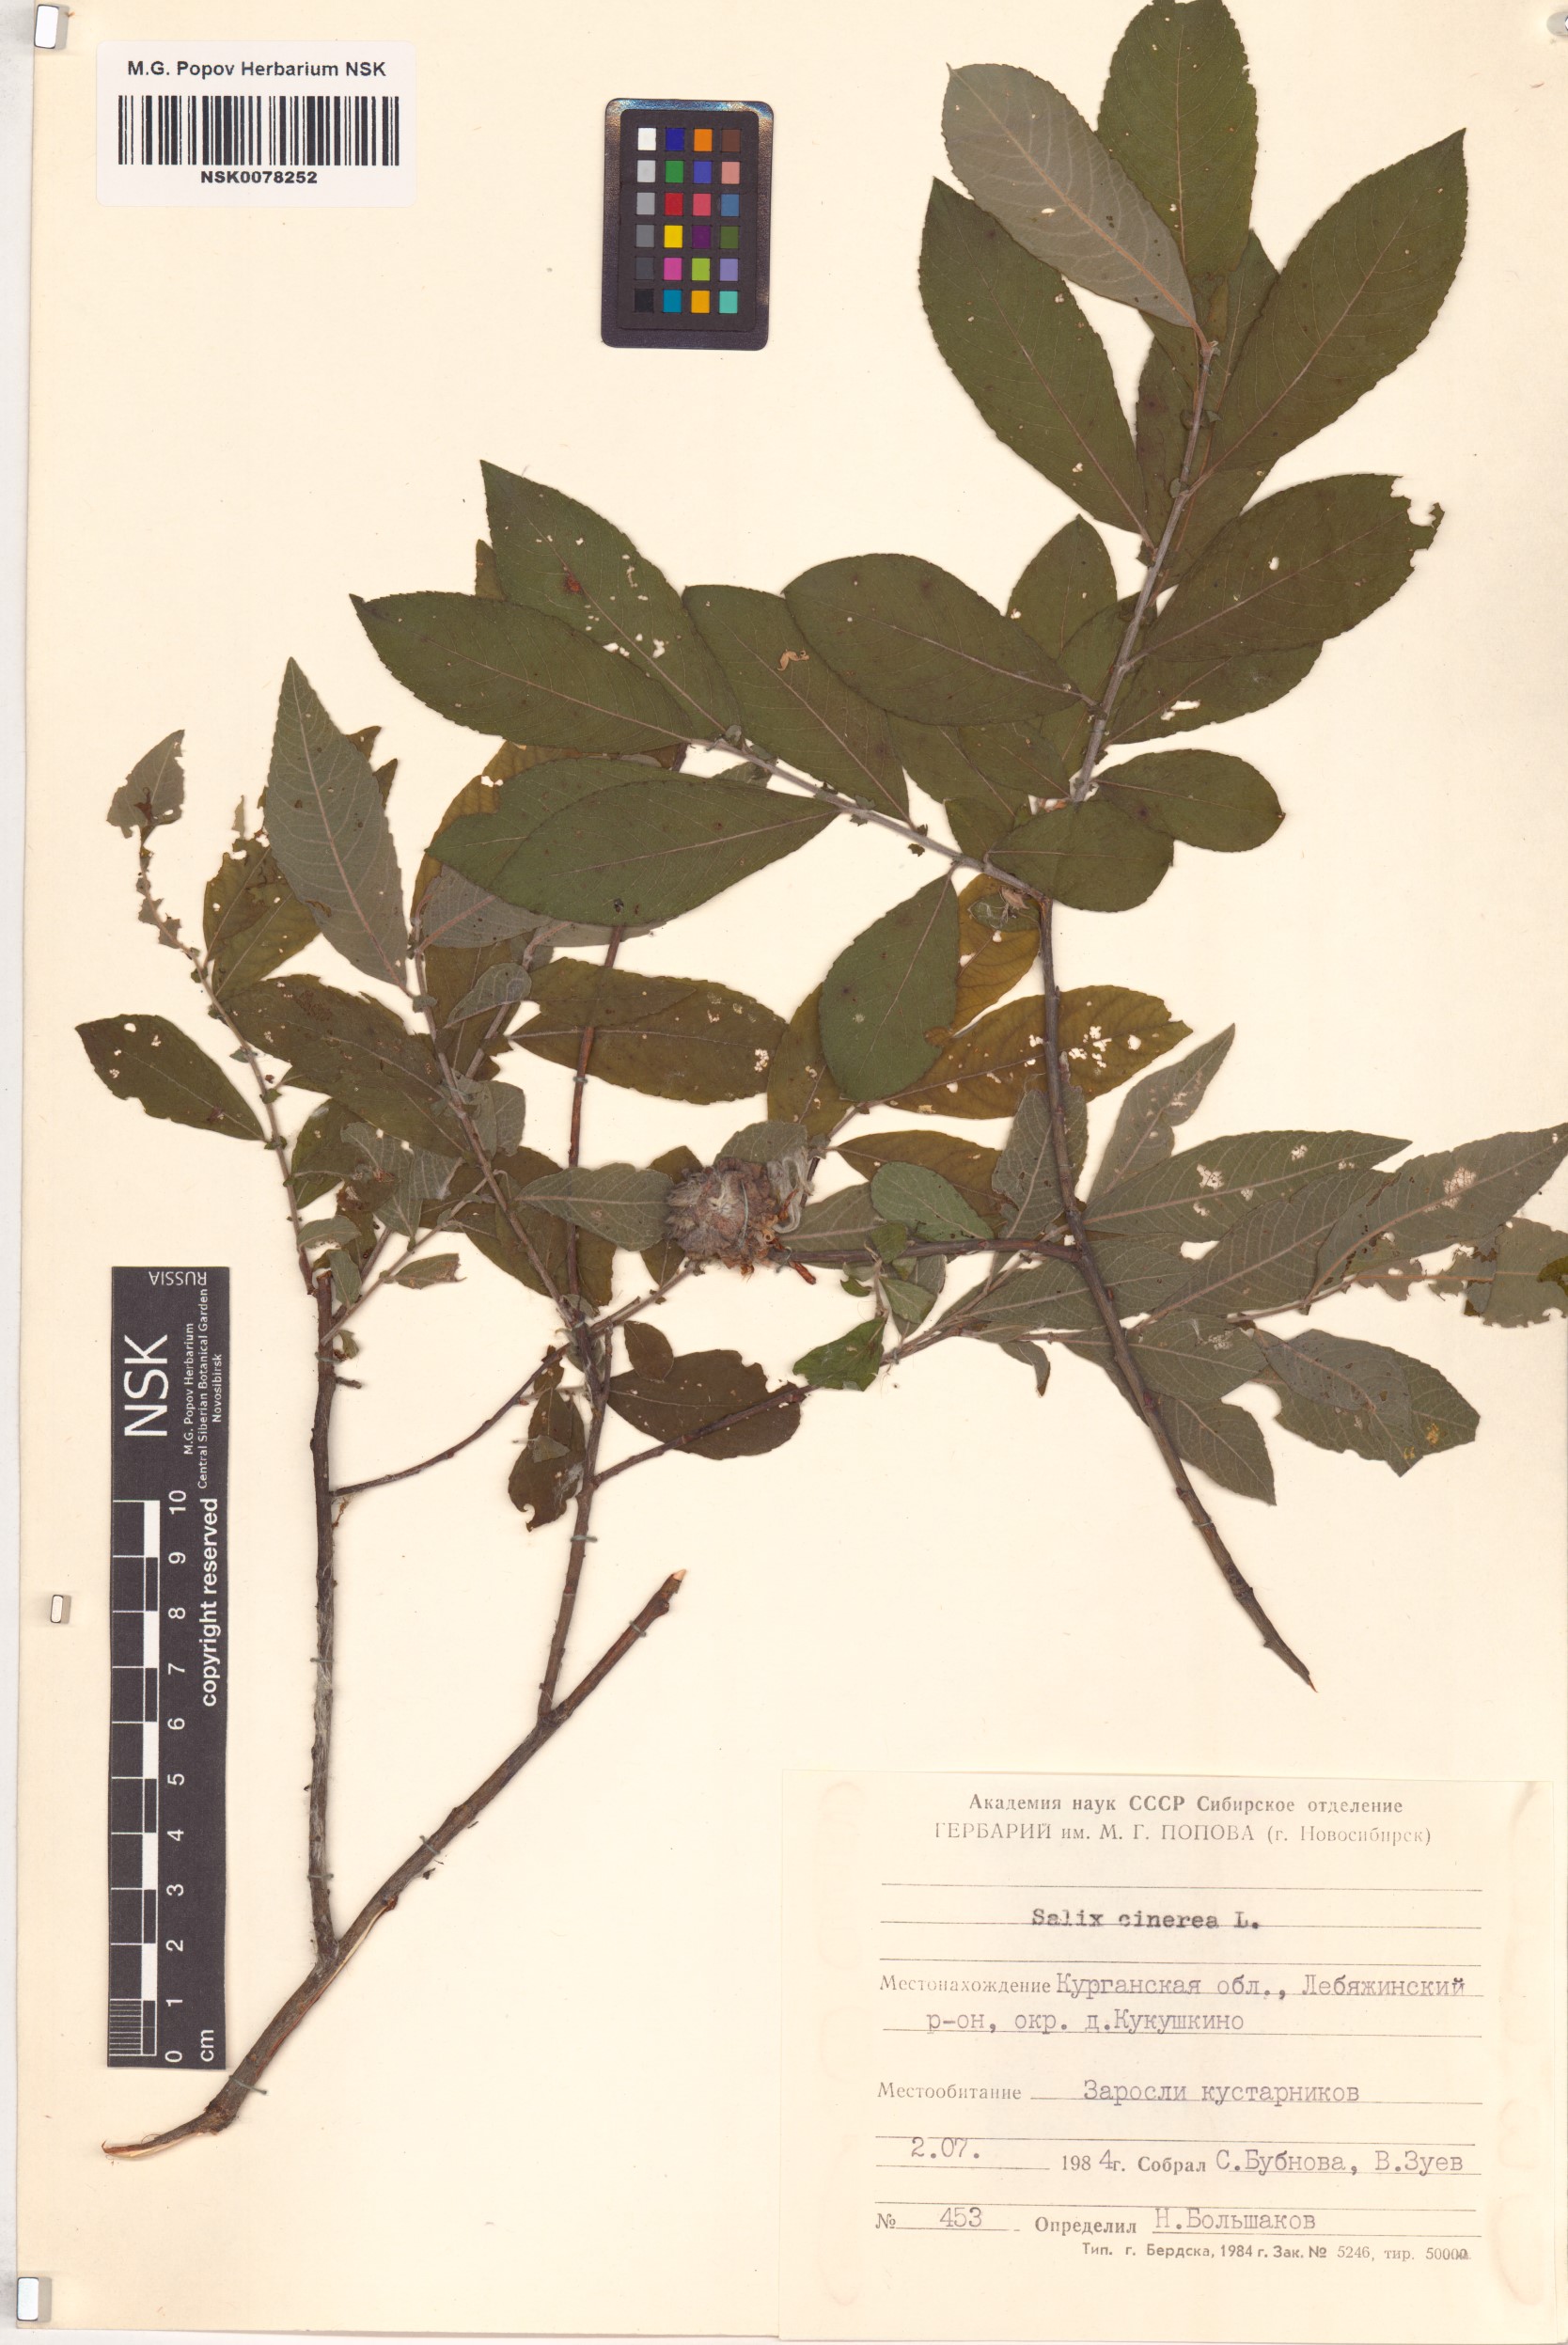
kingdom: Plantae
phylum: Tracheophyta
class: Magnoliopsida
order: Malpighiales
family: Salicaceae
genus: Salix
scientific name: Salix cinerea
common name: Common sallow
